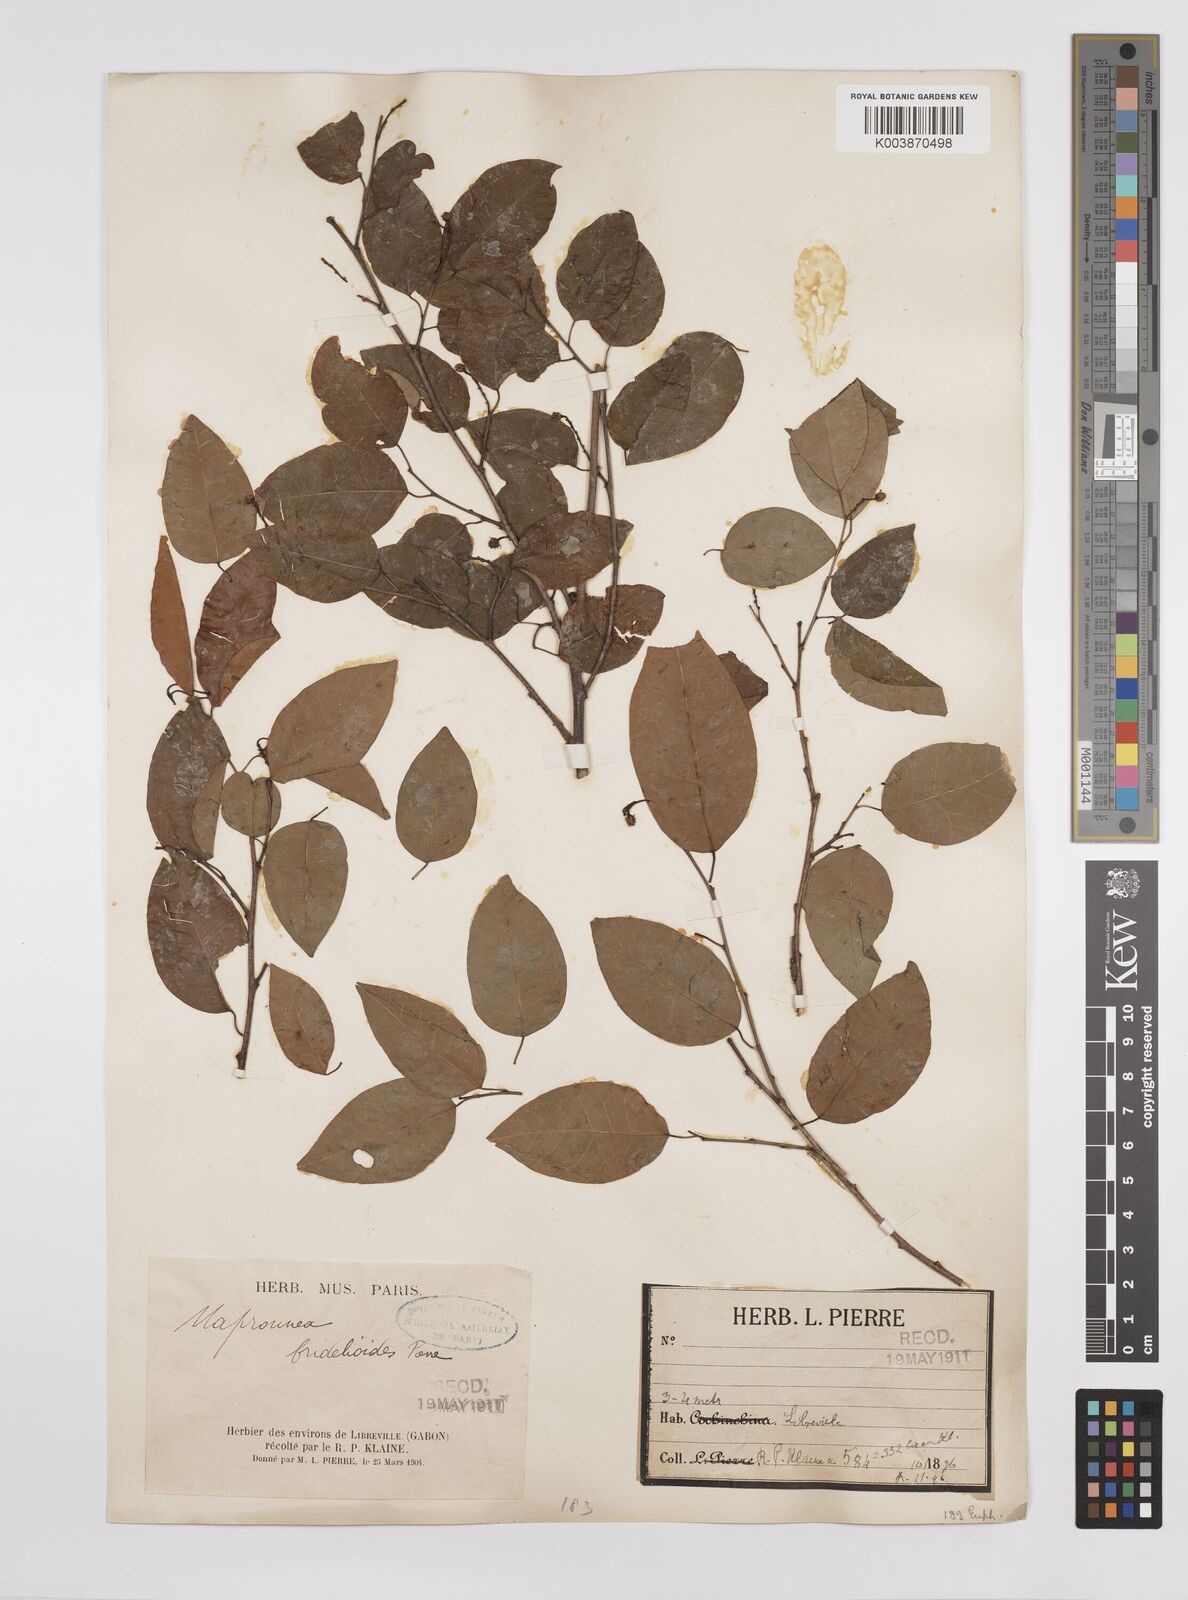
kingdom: Plantae
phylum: Tracheophyta
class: Magnoliopsida
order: Malpighiales
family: Euphorbiaceae
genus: Maprounea
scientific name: Maprounea membranacea
